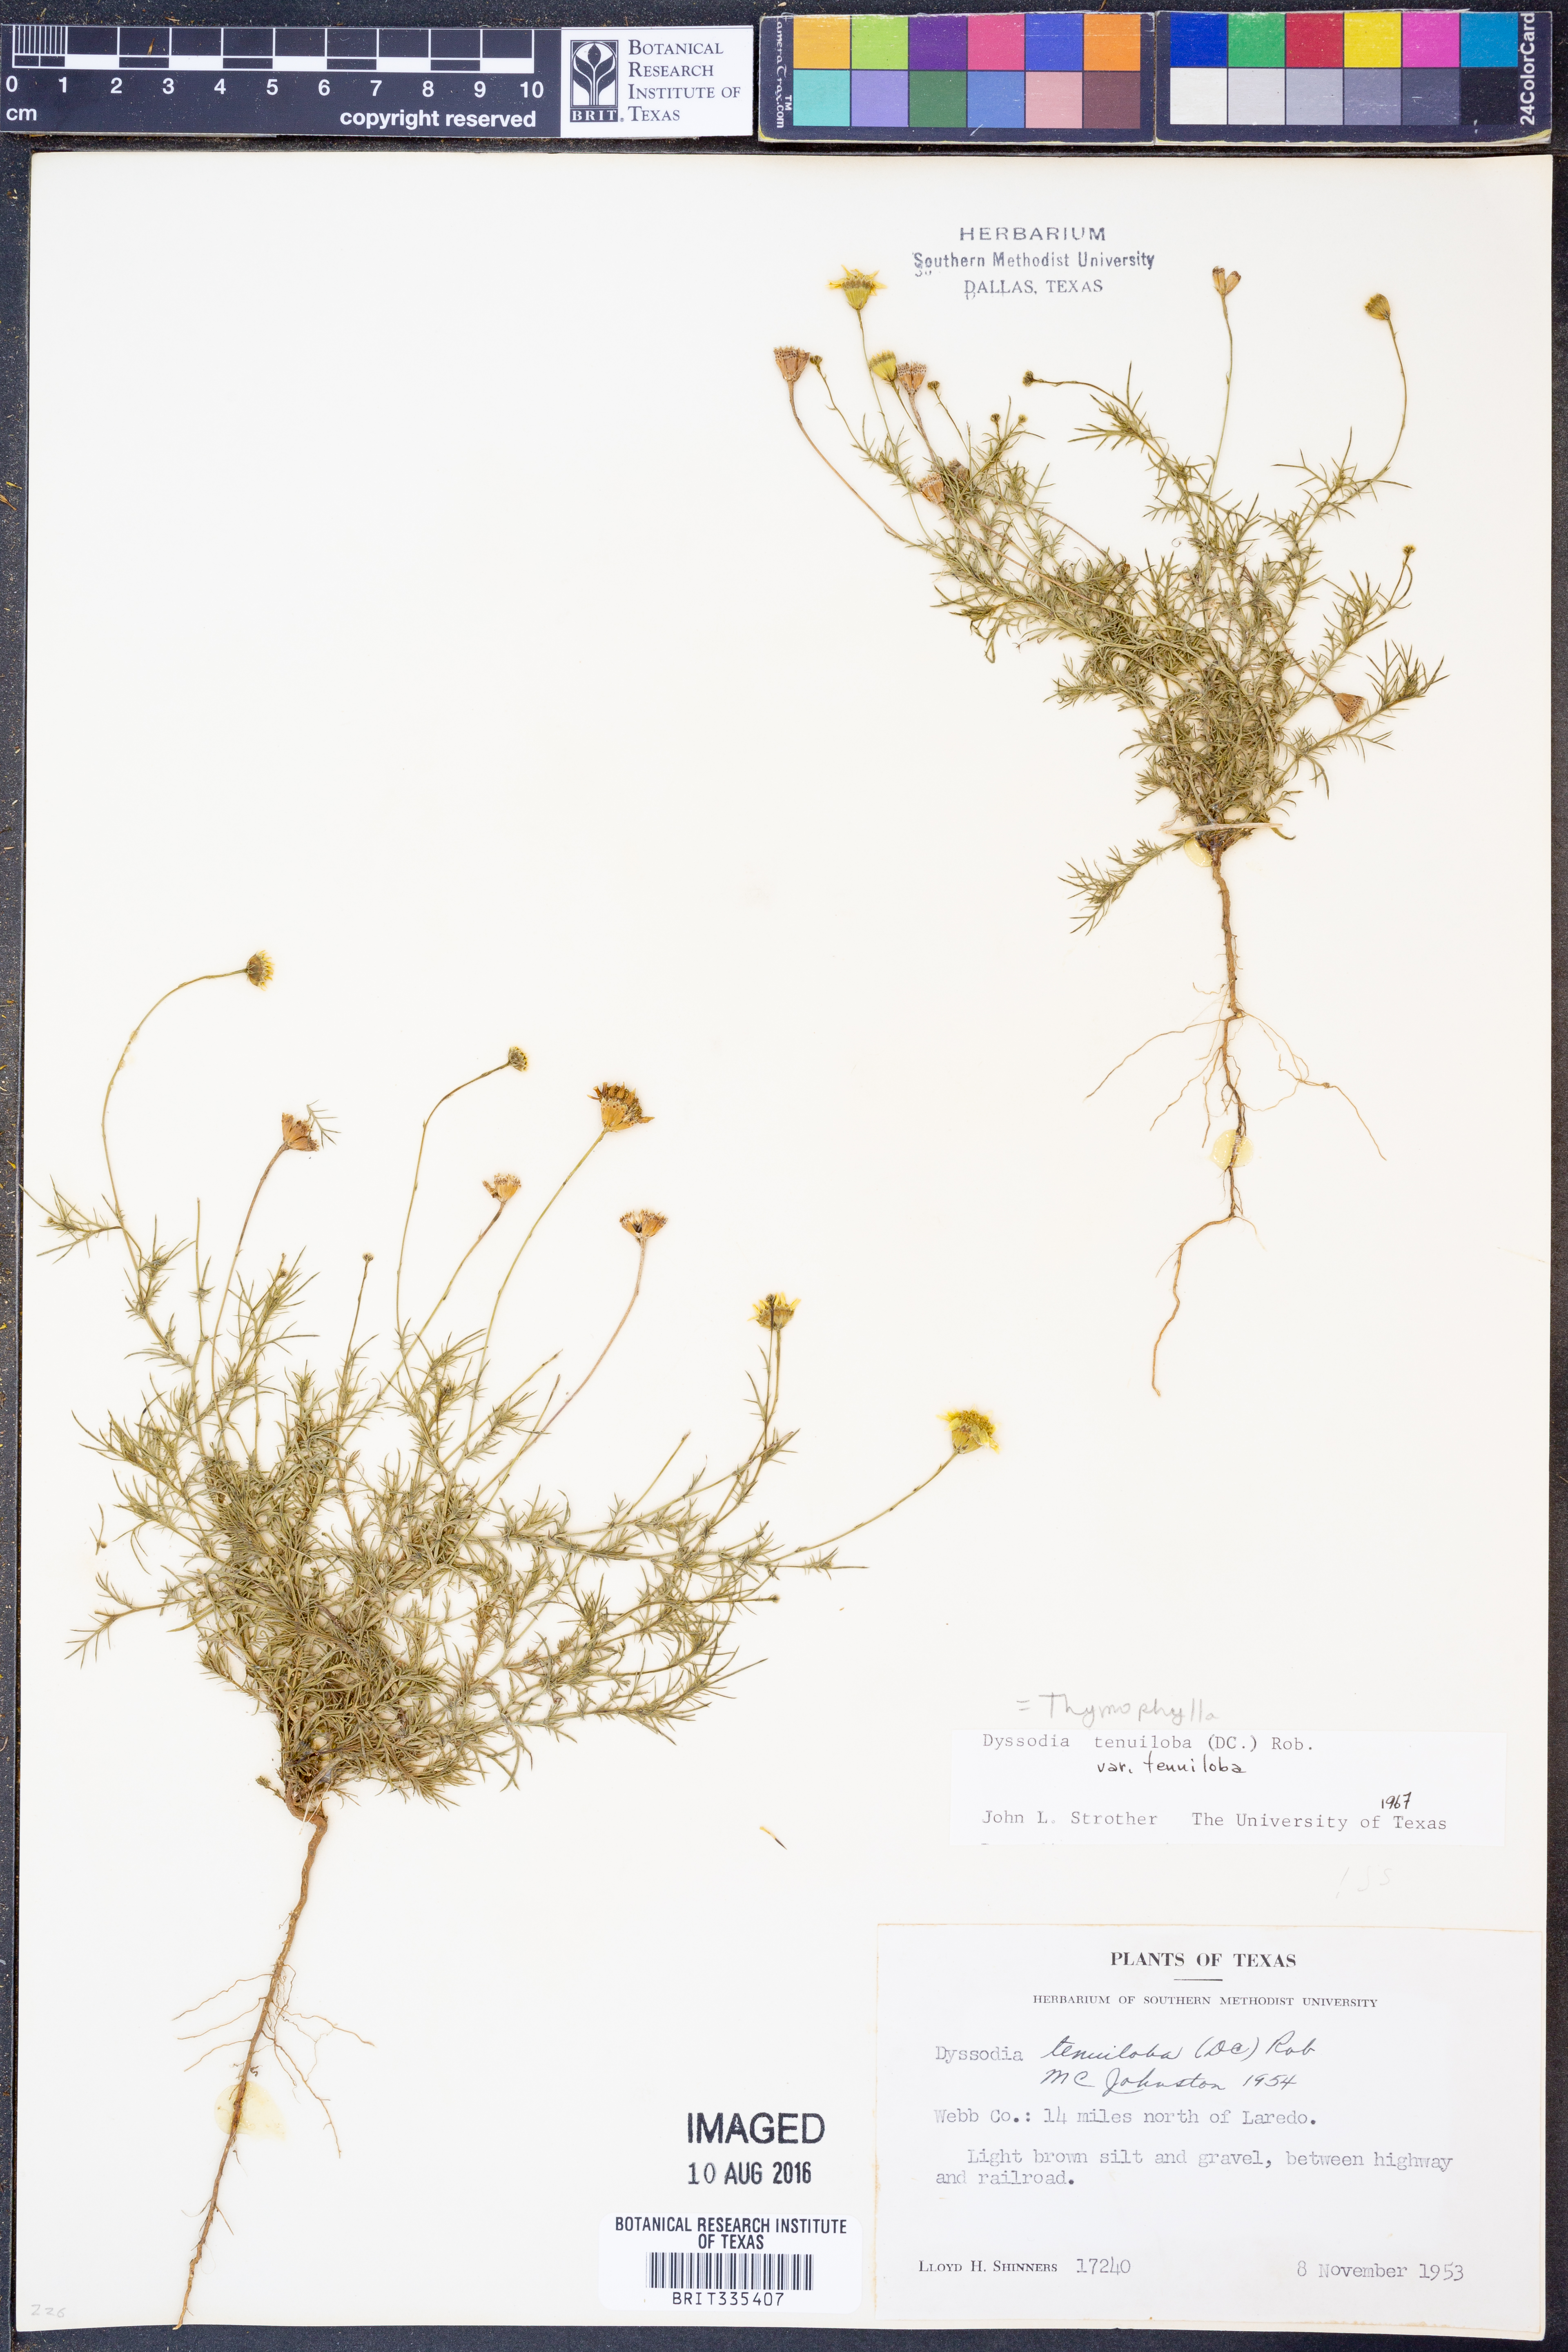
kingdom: Plantae
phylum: Tracheophyta
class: Magnoliopsida
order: Asterales
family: Asteraceae
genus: Thymophylla
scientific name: Thymophylla tenuiloba
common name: Dahlberg's daisy
